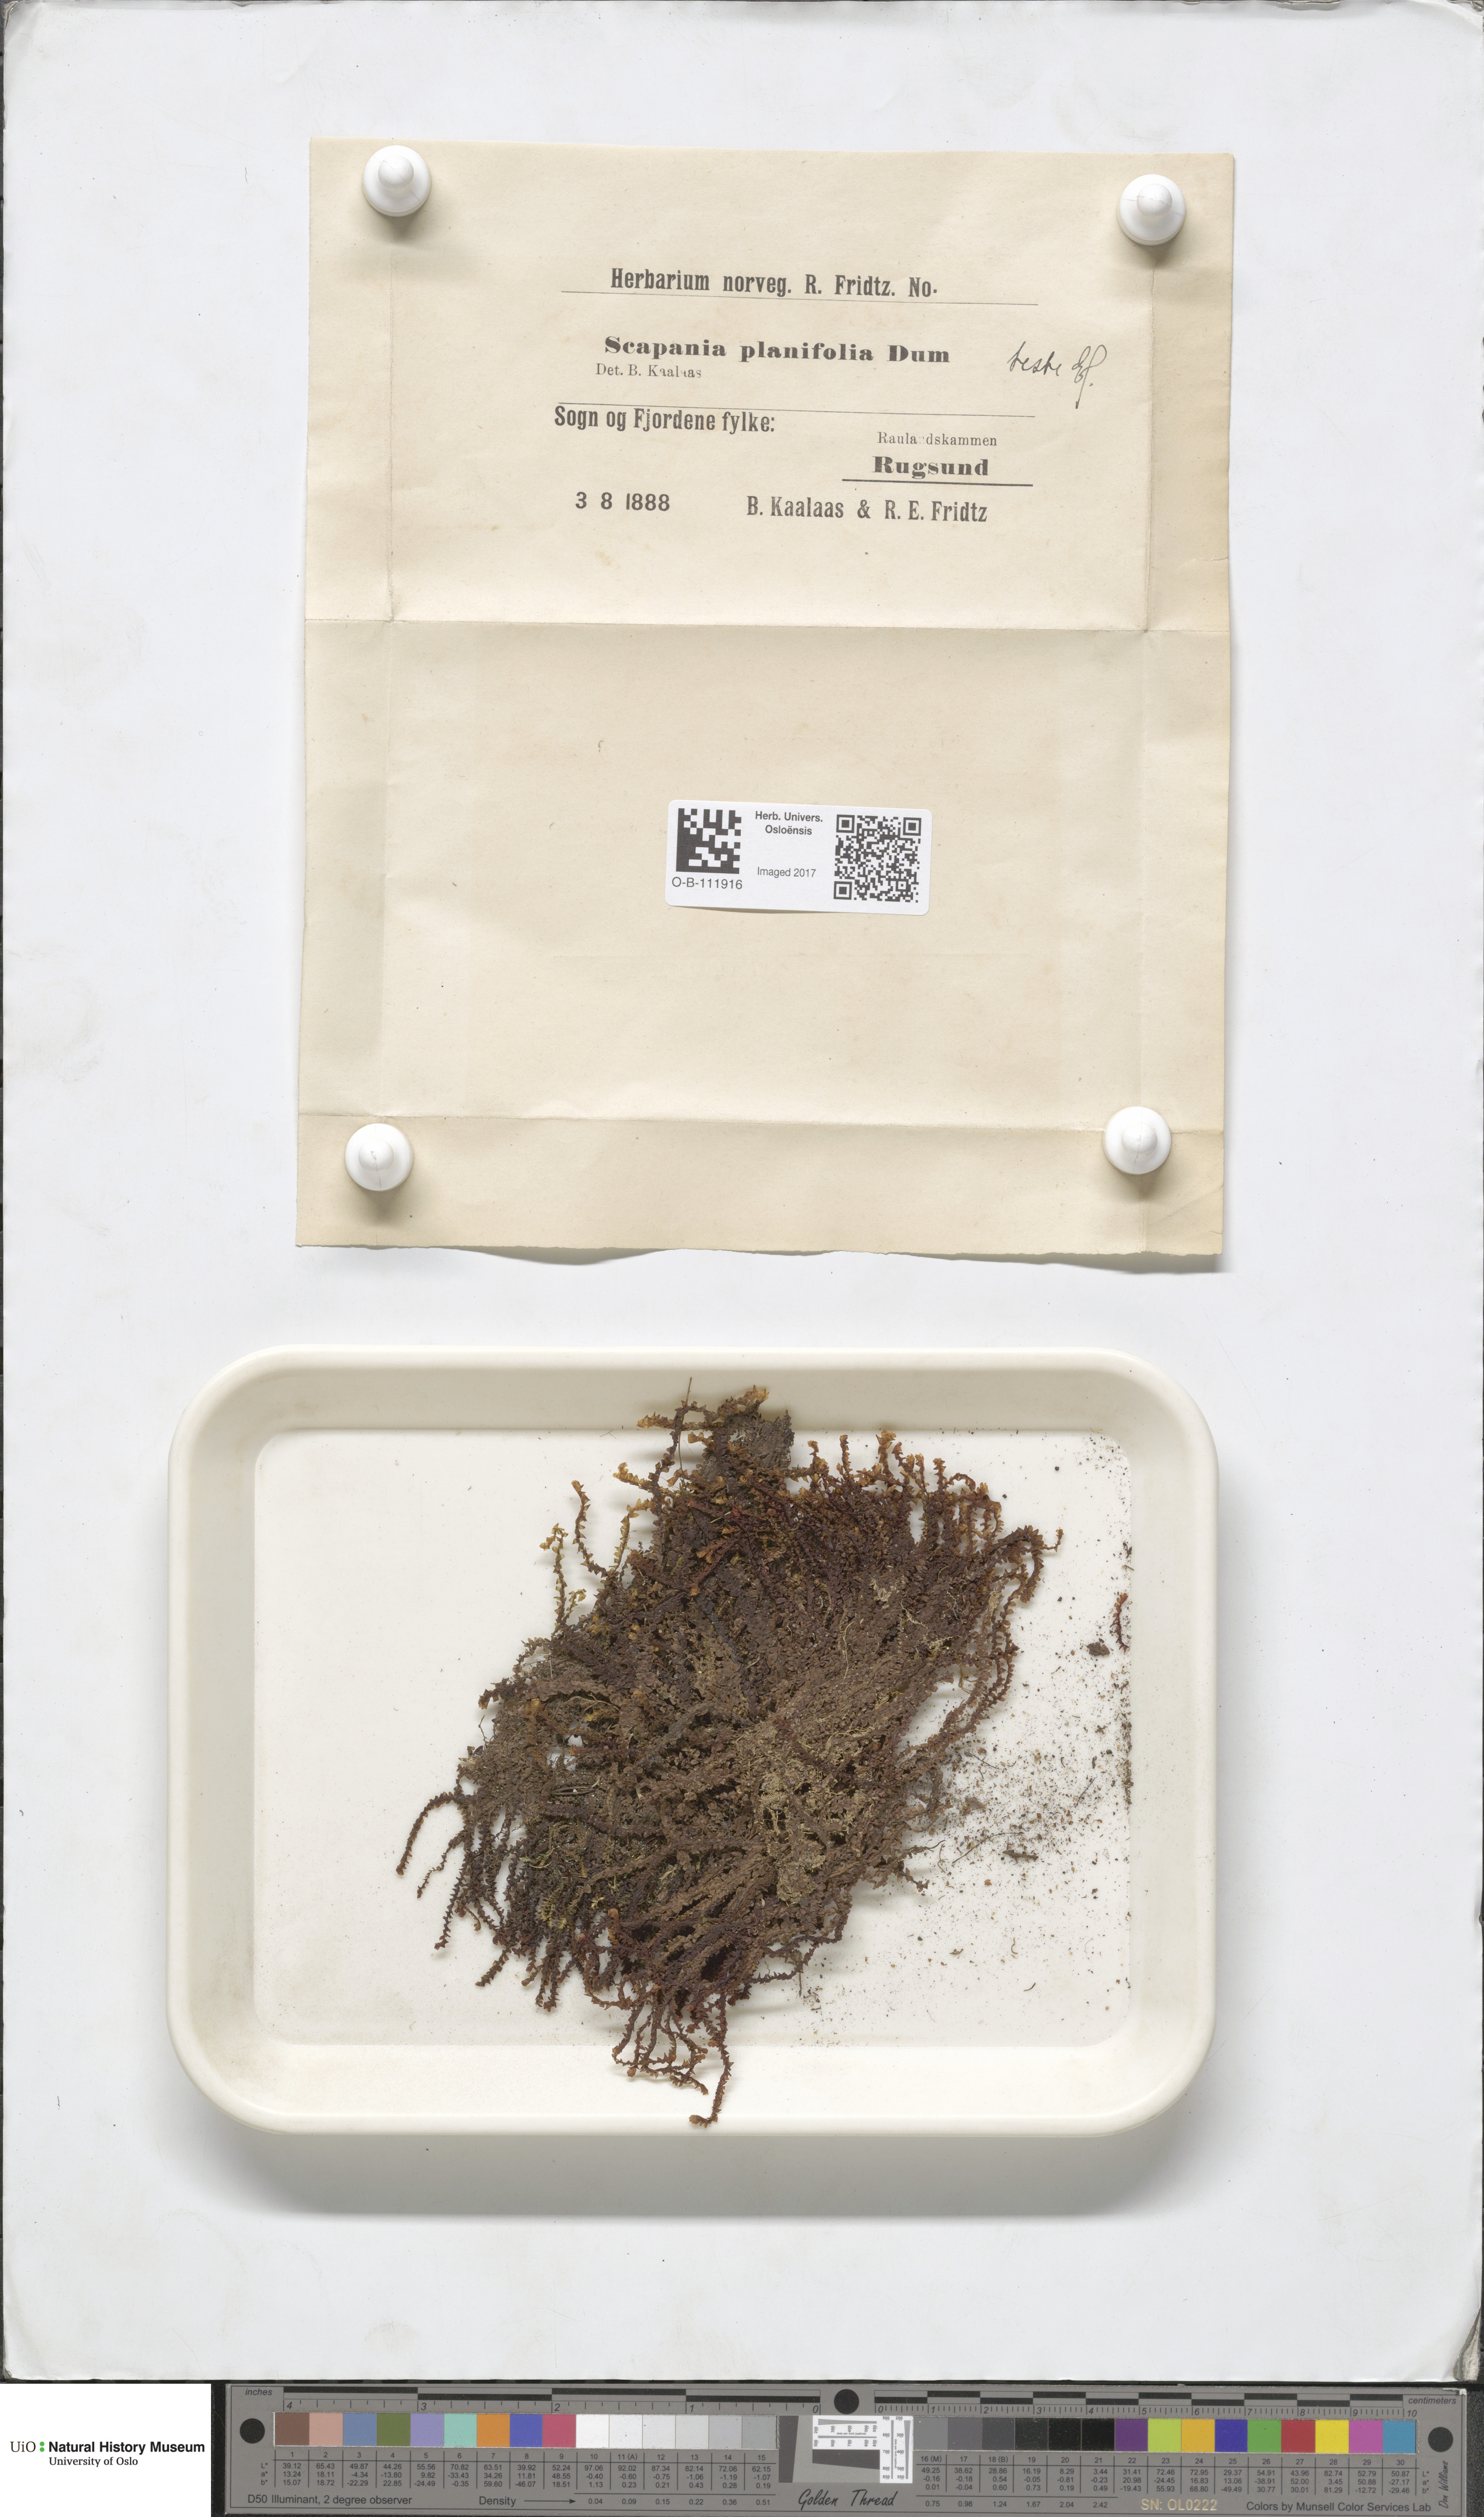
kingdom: Plantae
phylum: Marchantiophyta
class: Jungermanniopsida
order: Jungermanniales
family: Scapaniaceae
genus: Scapania
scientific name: Scapania ornithopodioides
